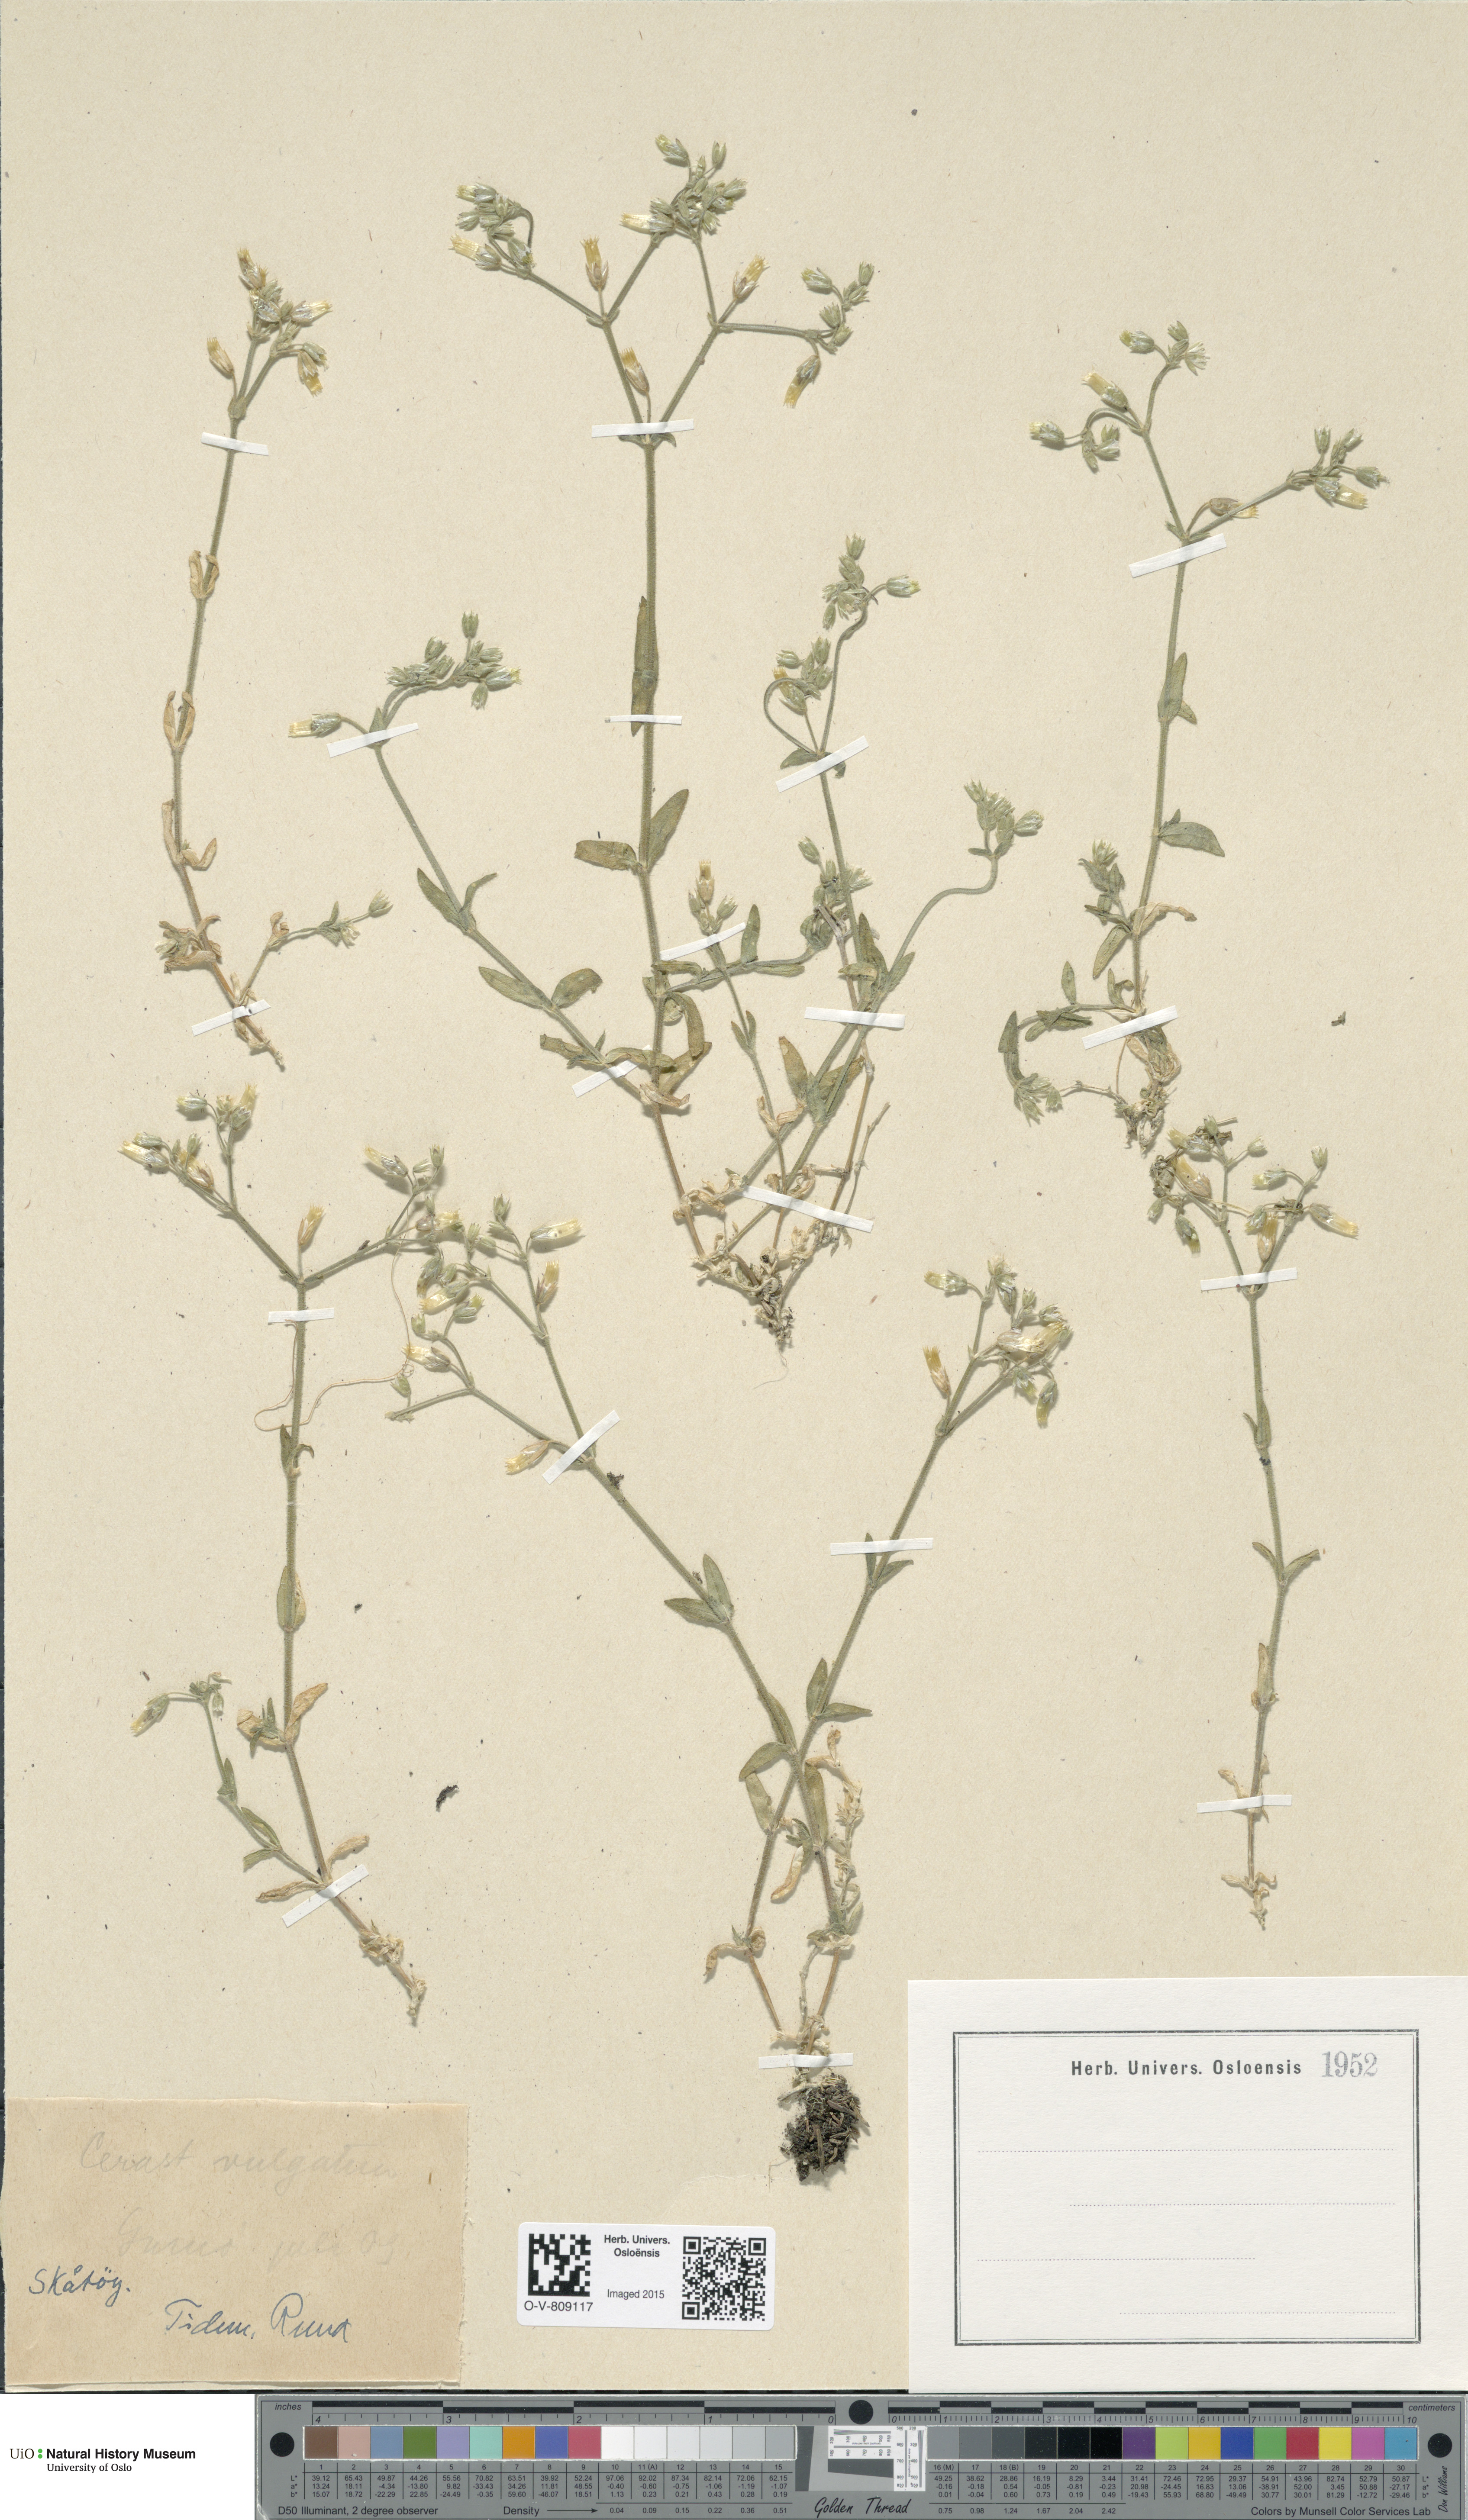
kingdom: Plantae
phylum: Tracheophyta
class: Magnoliopsida
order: Caryophyllales
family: Caryophyllaceae
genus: Cerastium
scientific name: Cerastium holosteoides
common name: Big chickweed
